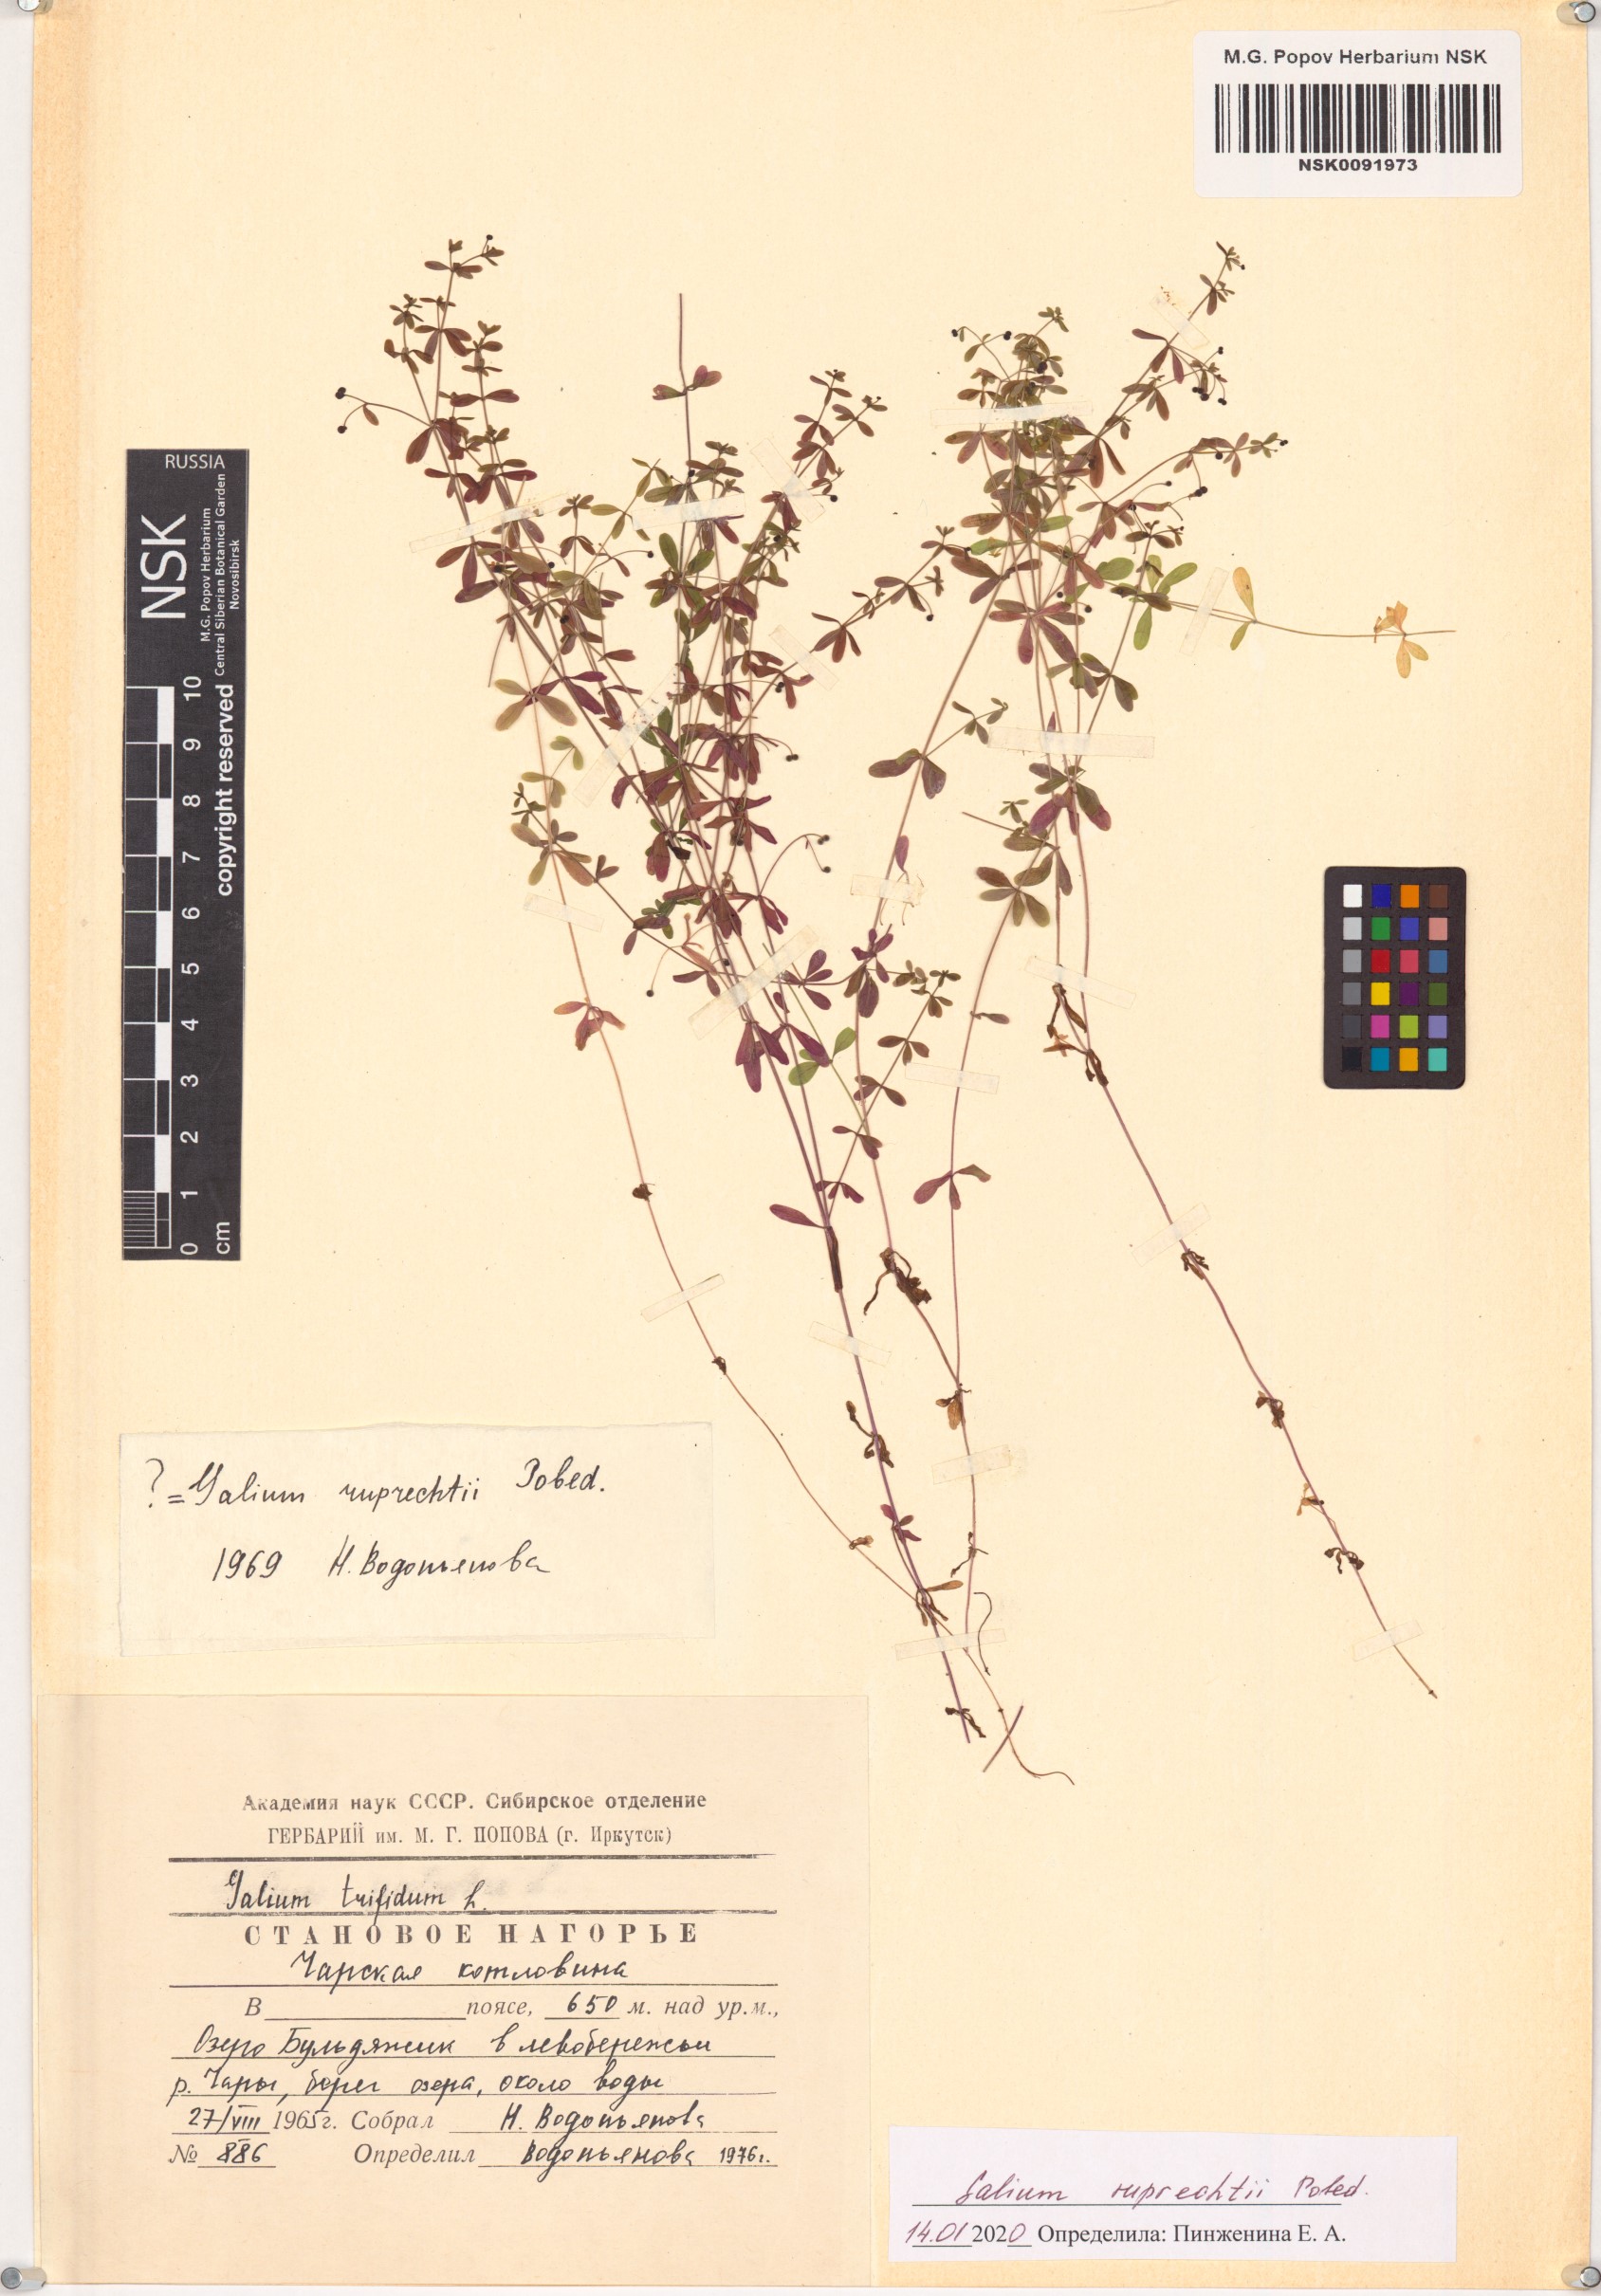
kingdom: Plantae
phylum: Tracheophyta
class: Magnoliopsida
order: Gentianales
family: Rubiaceae
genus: Galium
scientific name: Galium trifidum
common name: Small bedstraw
